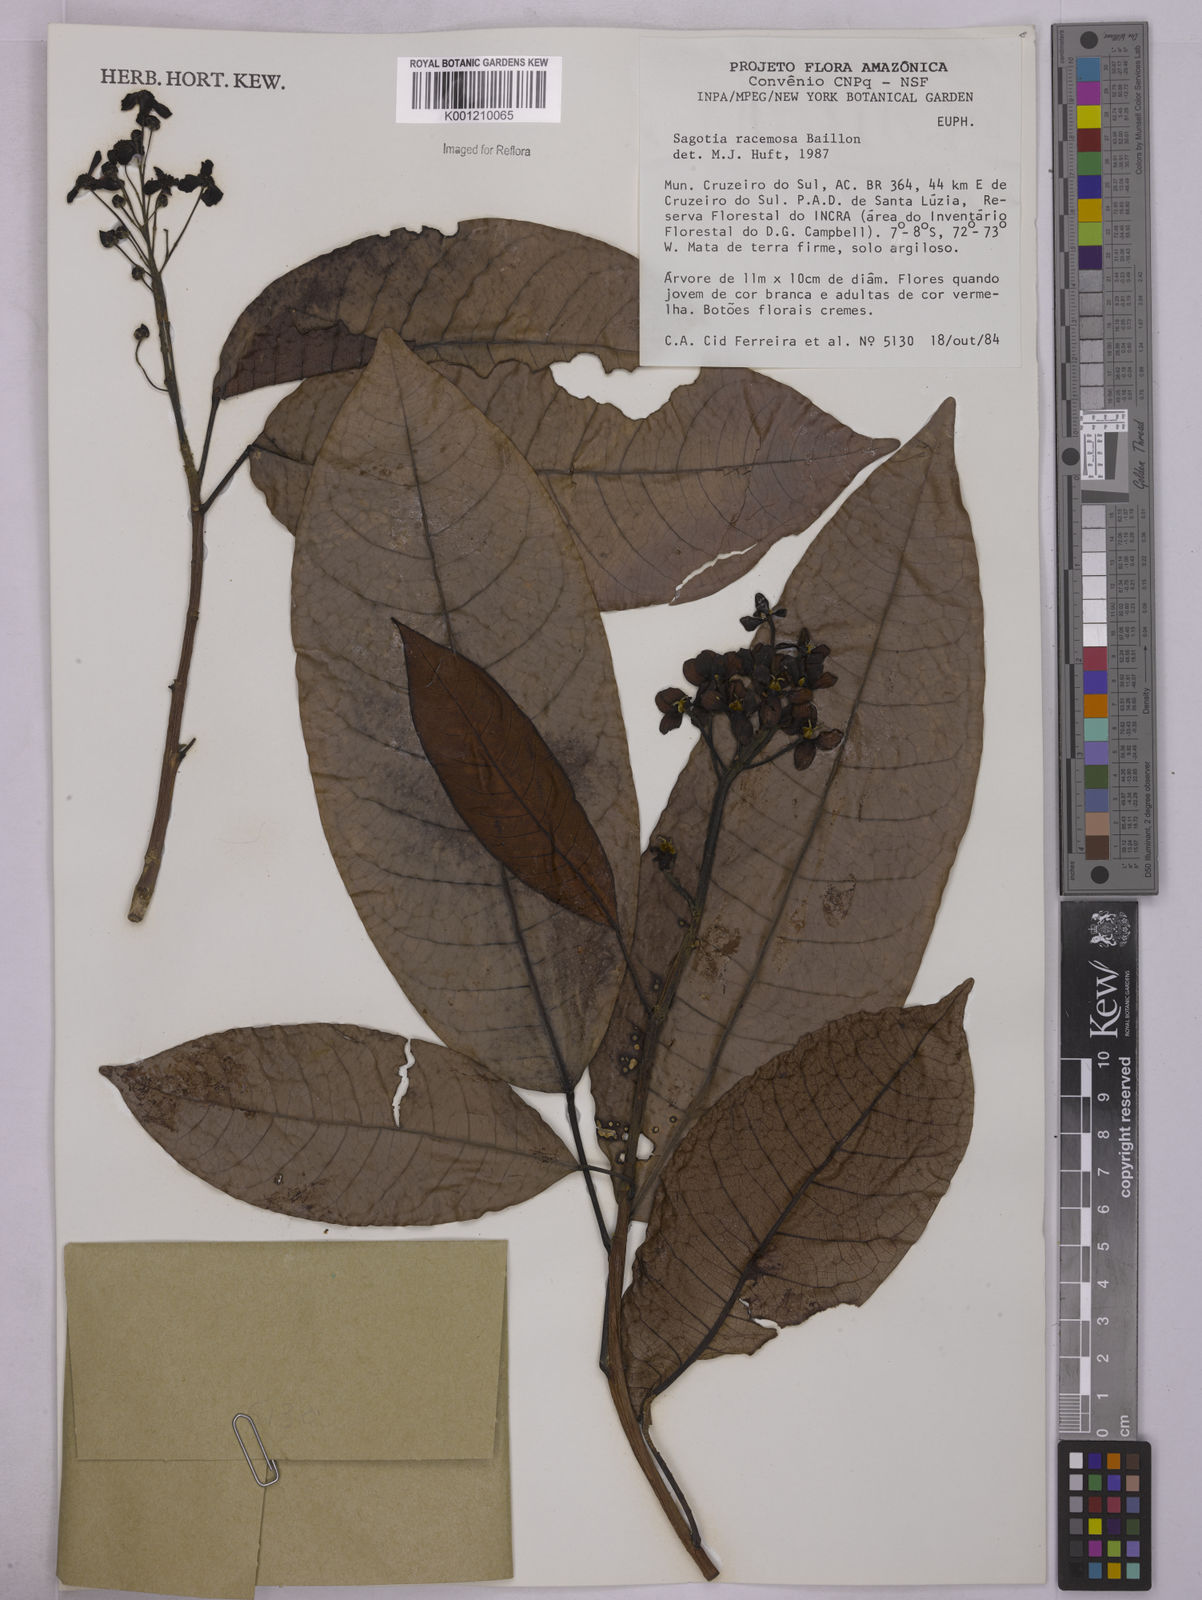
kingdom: Plantae
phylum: Tracheophyta
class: Magnoliopsida
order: Malpighiales
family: Euphorbiaceae
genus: Sagotia
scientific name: Sagotia racemosa
